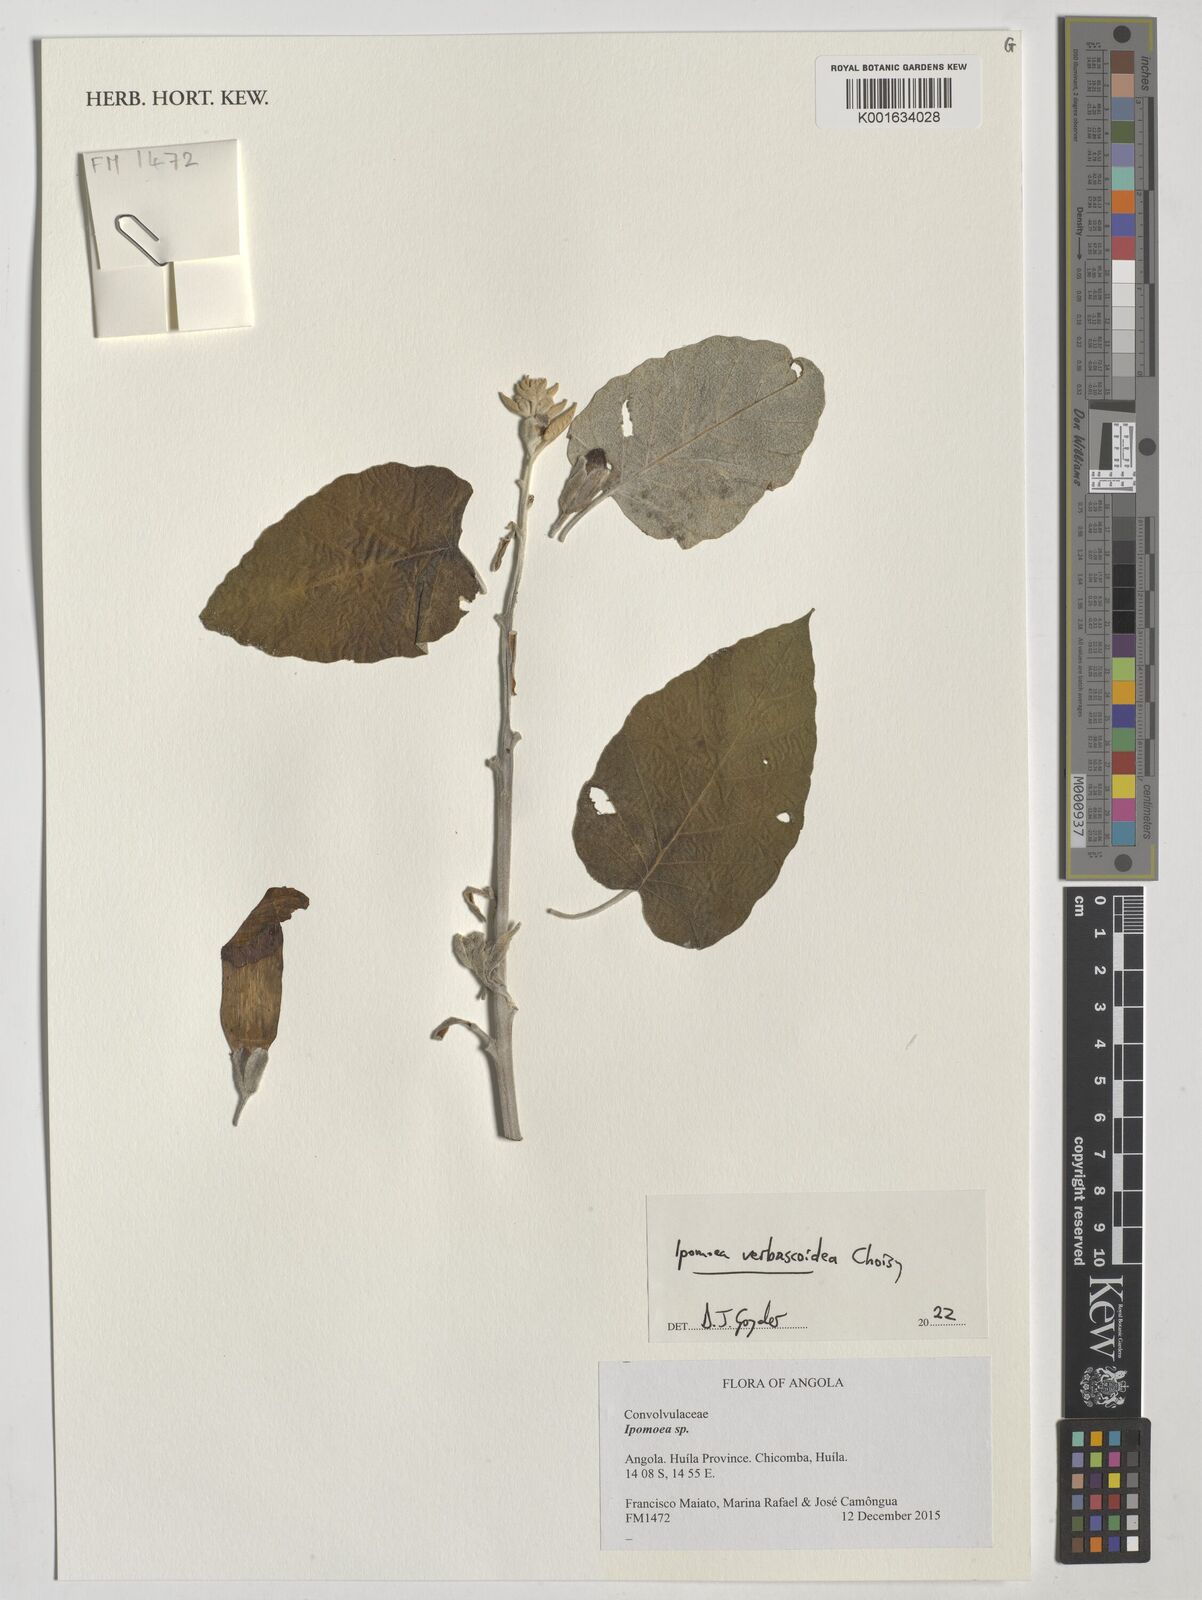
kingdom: Plantae
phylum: Tracheophyta
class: Magnoliopsida
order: Solanales
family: Convolvulaceae
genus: Ipomoea
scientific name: Ipomoea verbascoidea
